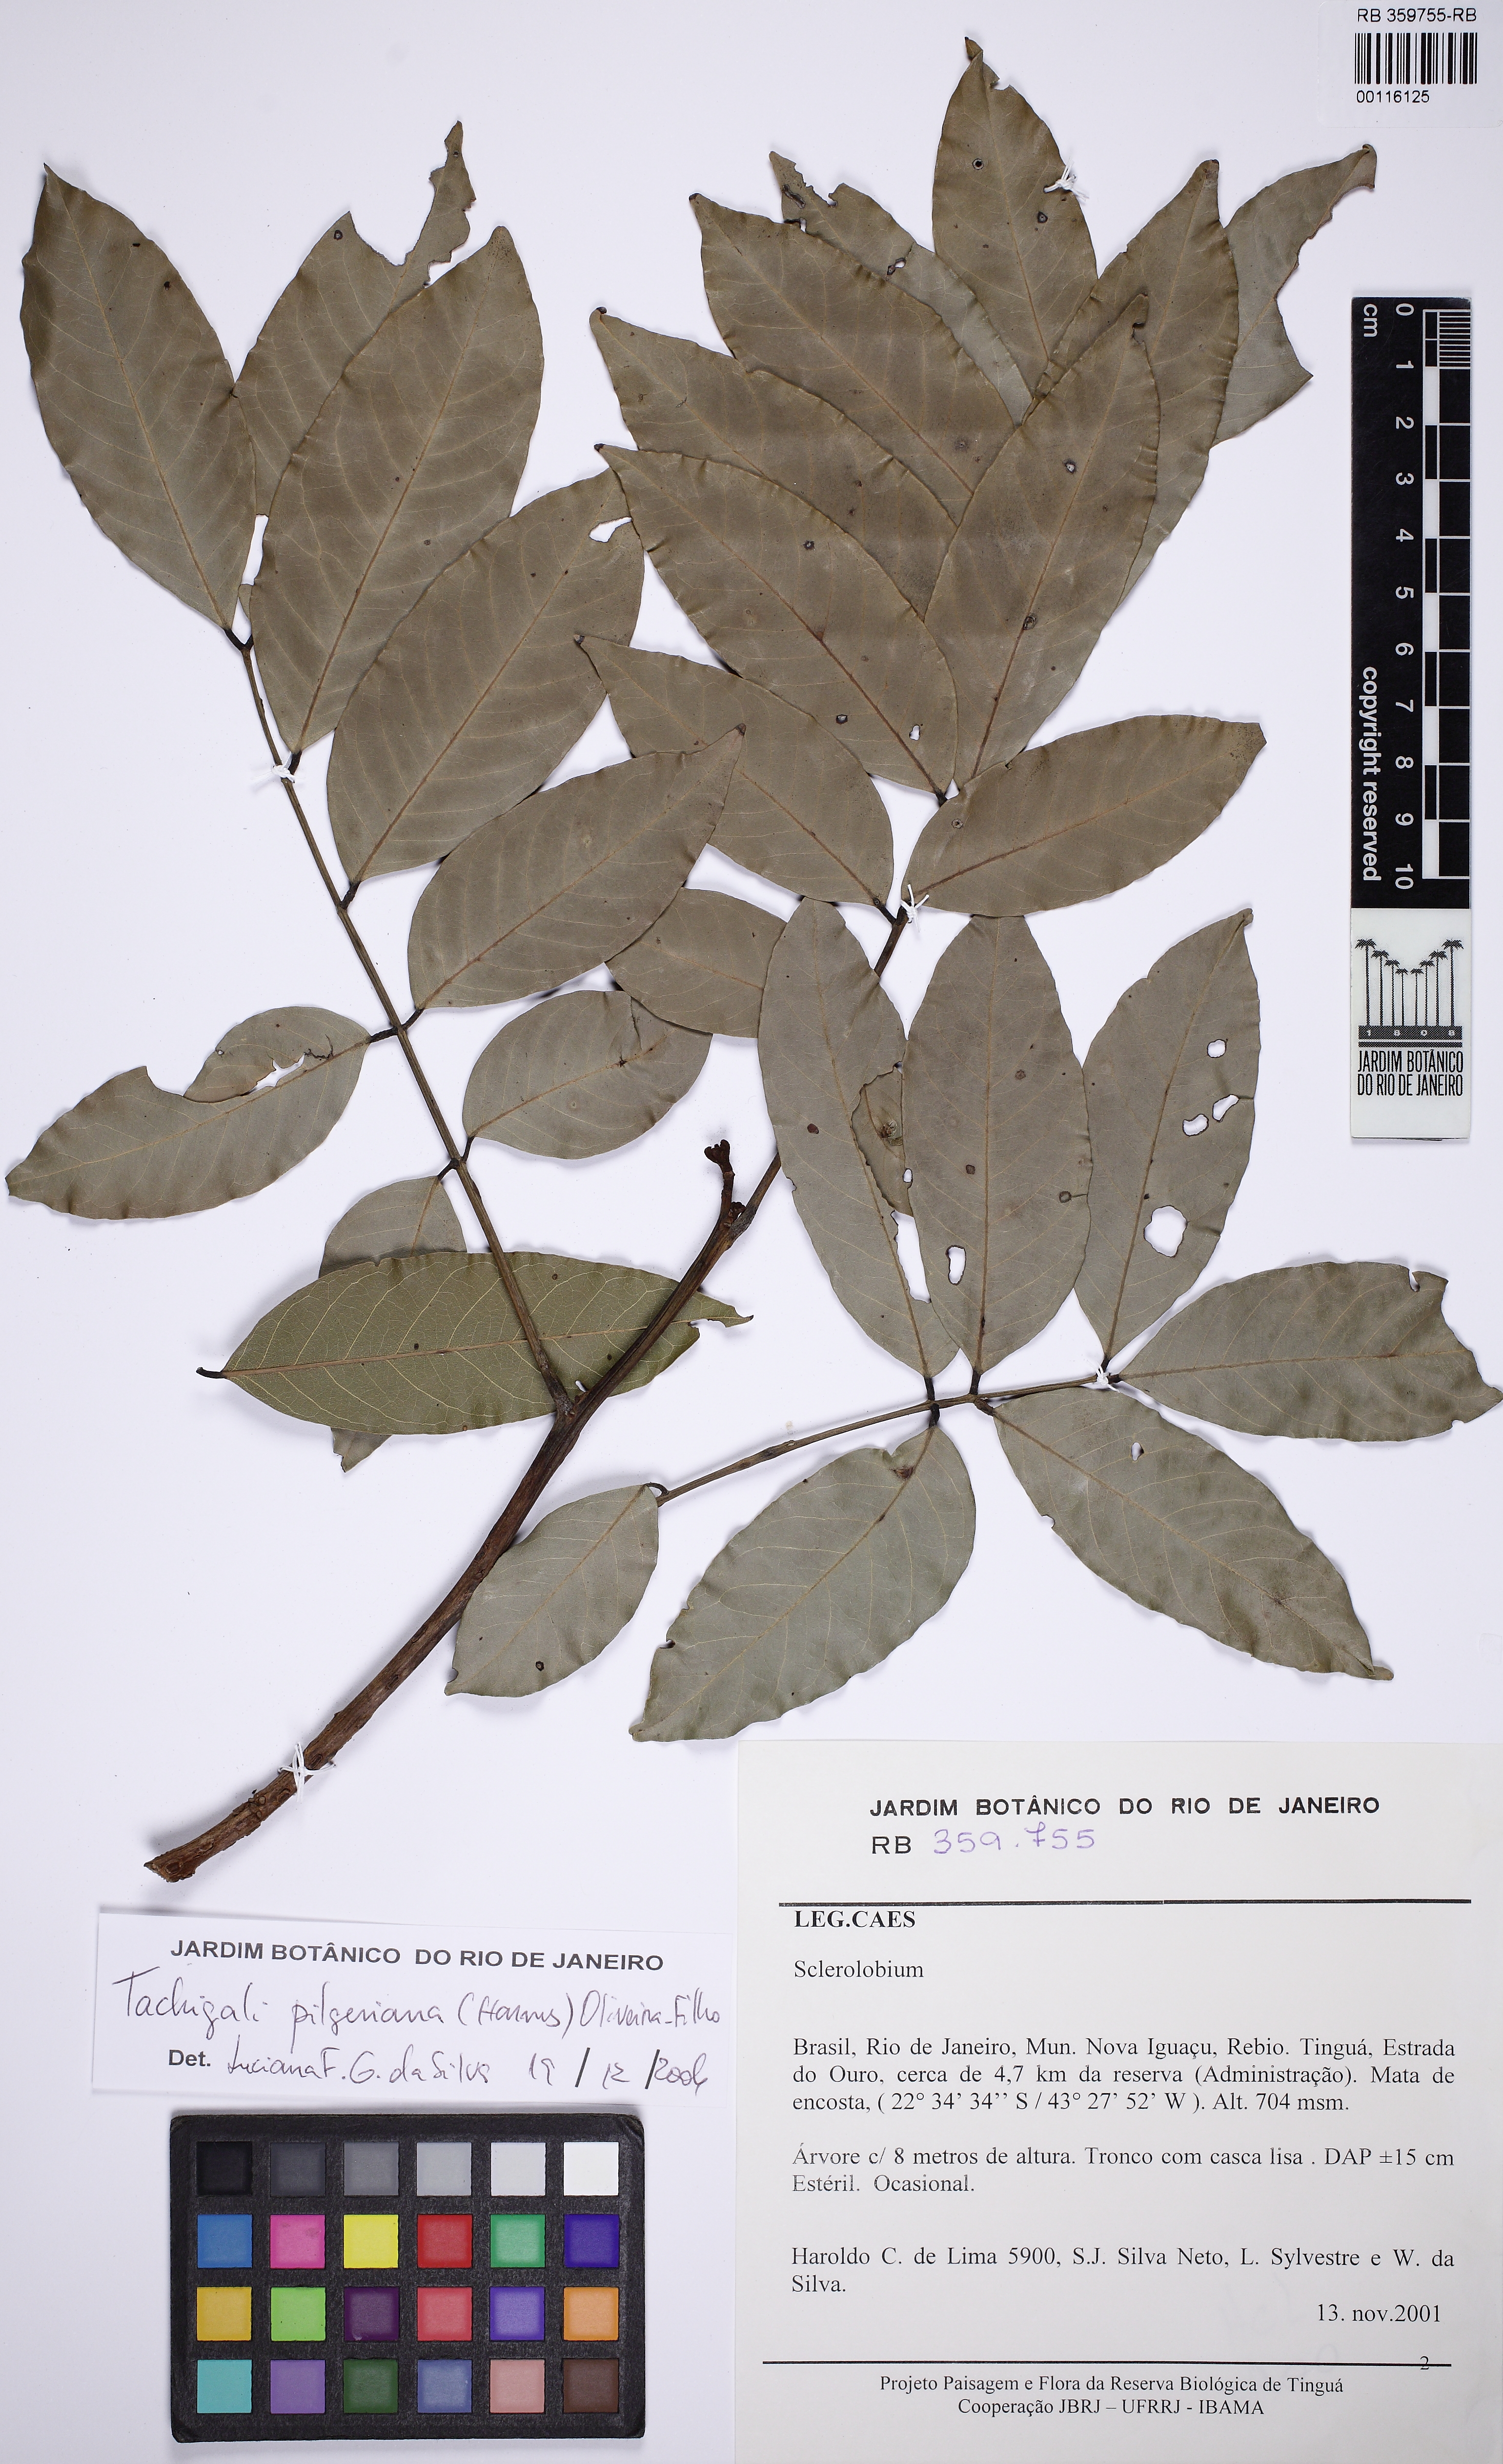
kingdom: Plantae
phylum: Tracheophyta
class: Magnoliopsida
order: Fabales
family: Fabaceae
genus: Tachigali
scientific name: Tachigali pilgeriana
